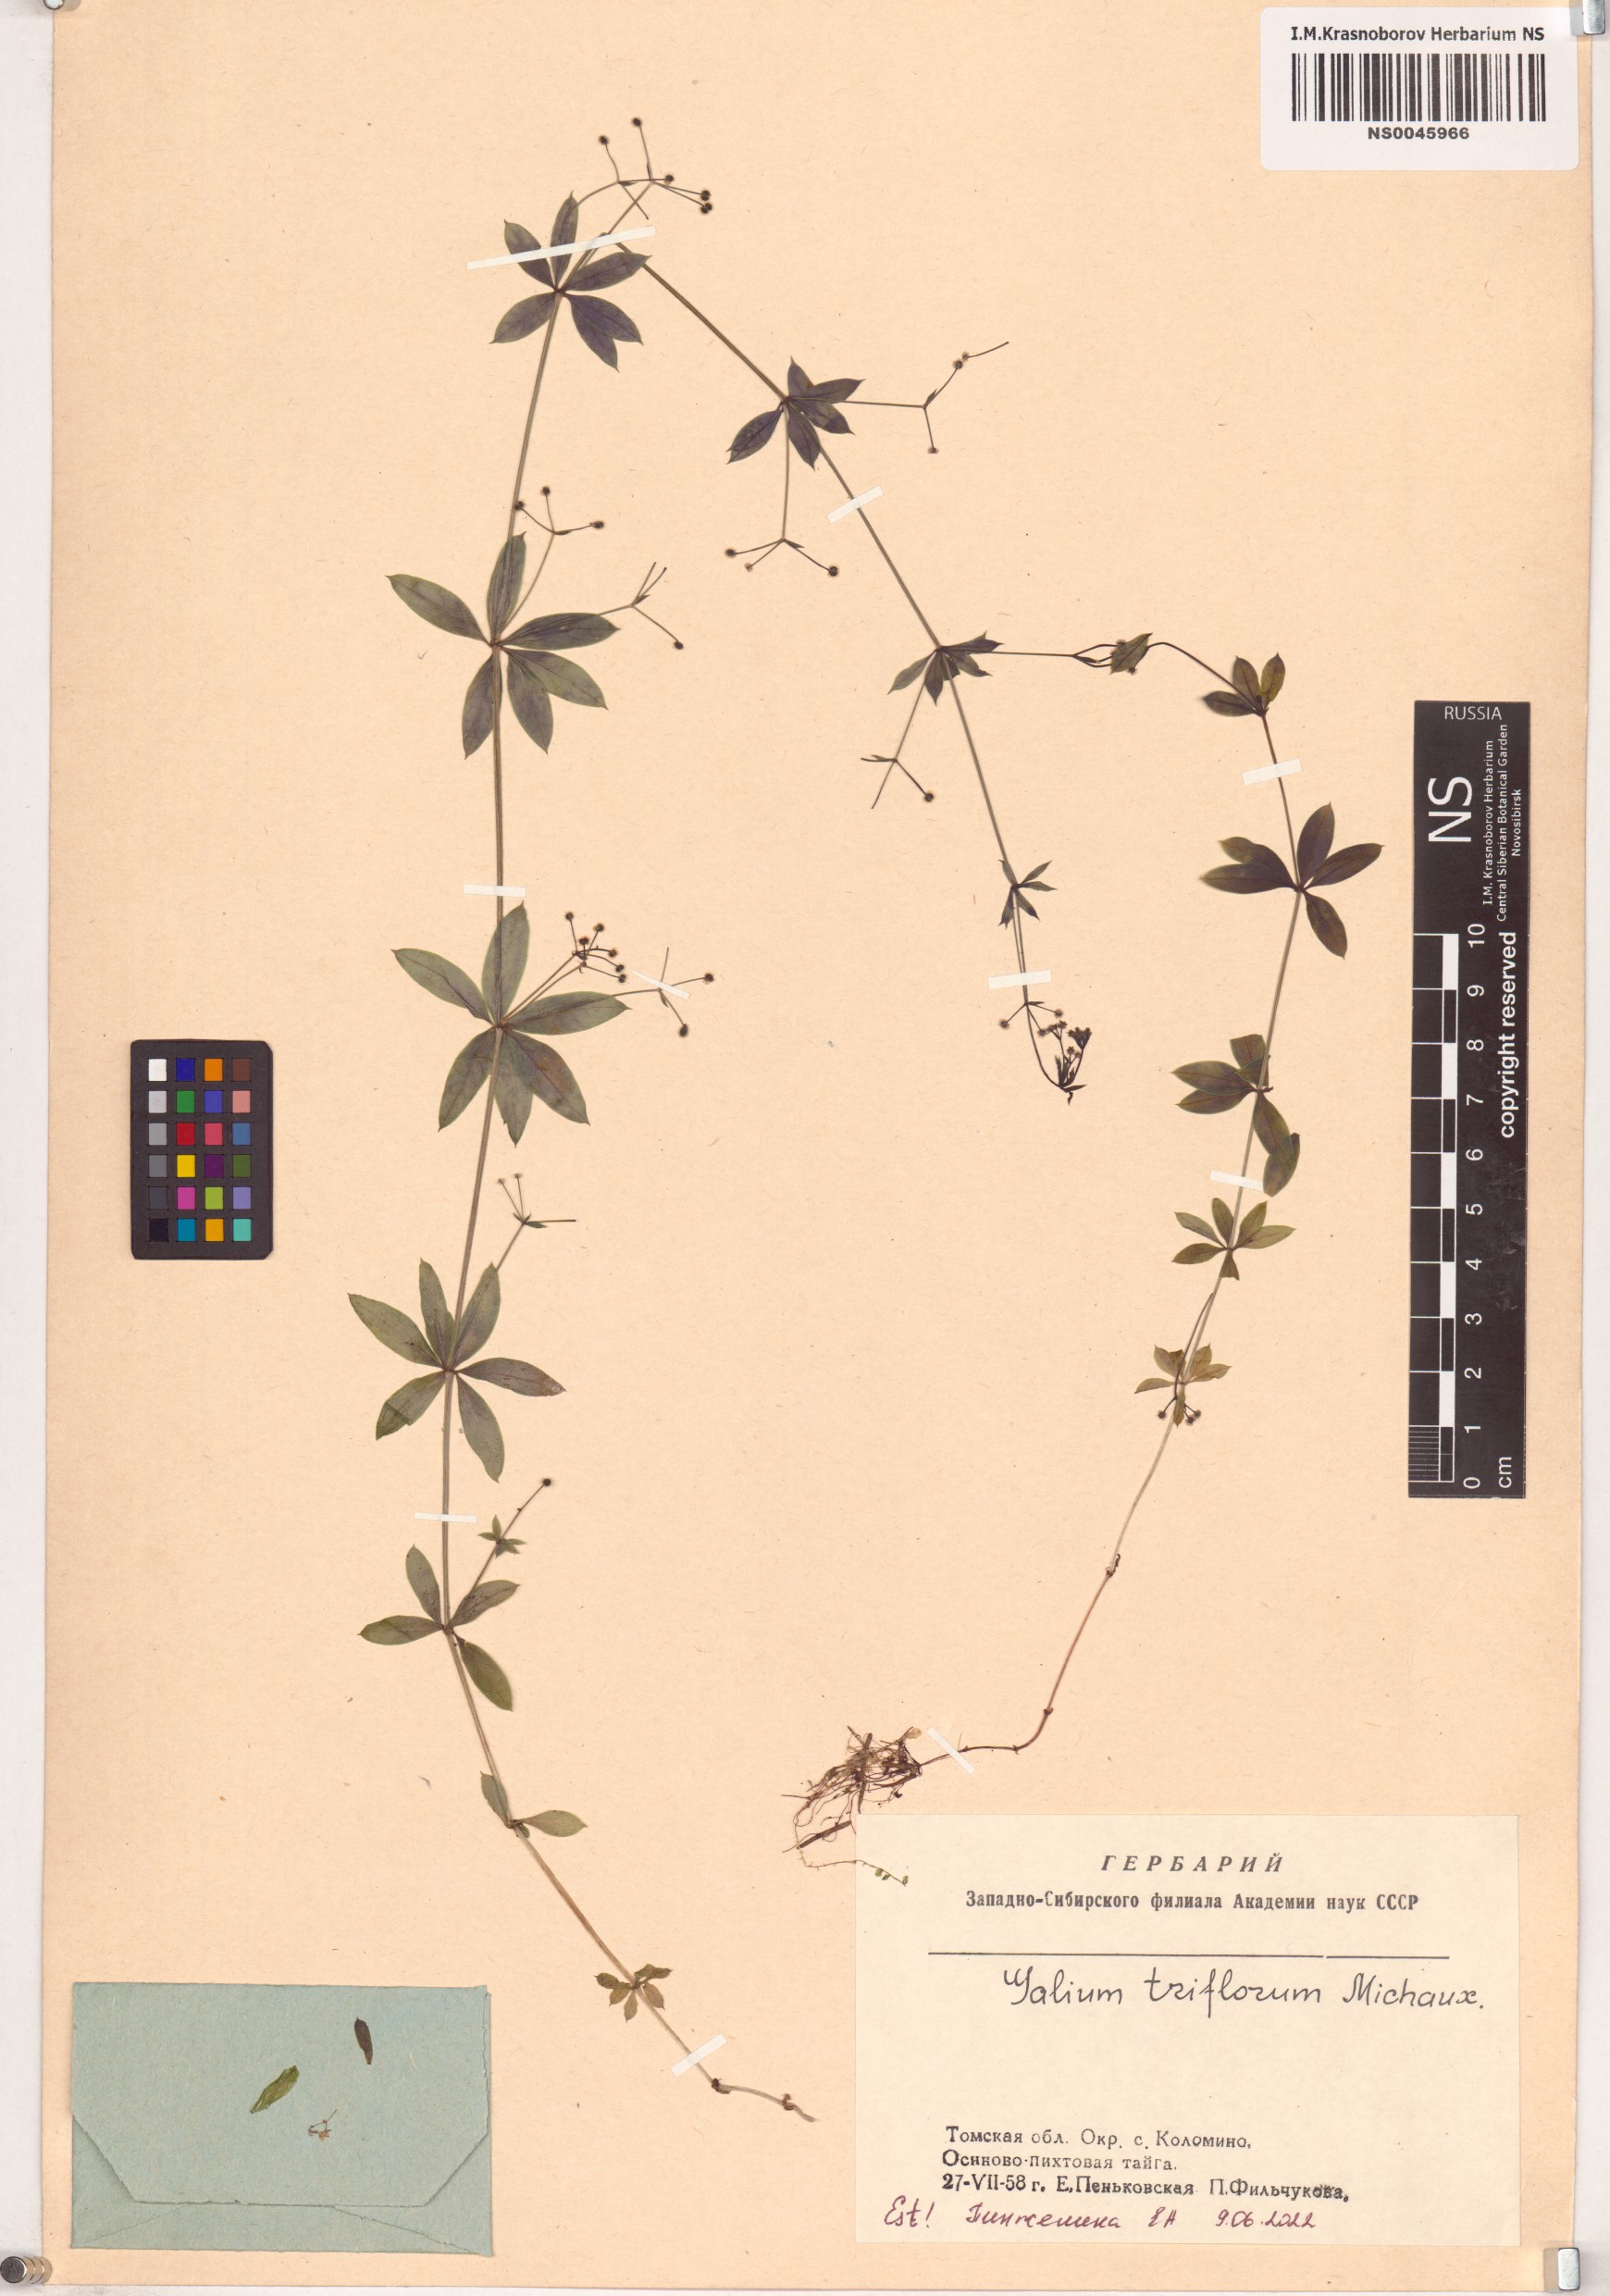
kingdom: Plantae
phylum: Tracheophyta
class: Magnoliopsida
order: Gentianales
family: Rubiaceae
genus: Galium
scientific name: Galium triflorum
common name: Fragrant bedstraw
